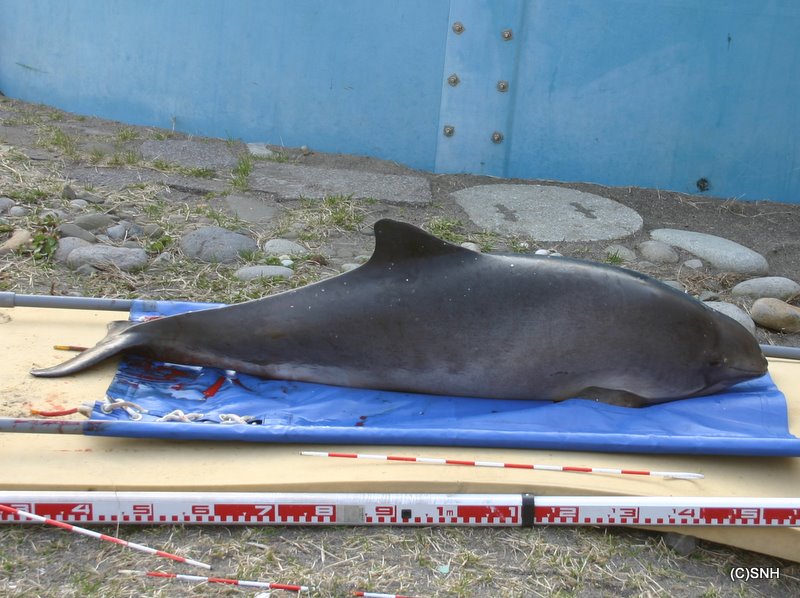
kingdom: Animalia
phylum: Chordata
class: Mammalia
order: Cetacea
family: Phocoenidae
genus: Phocoena
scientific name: Phocoena phocoena
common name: Harbour porpoise
